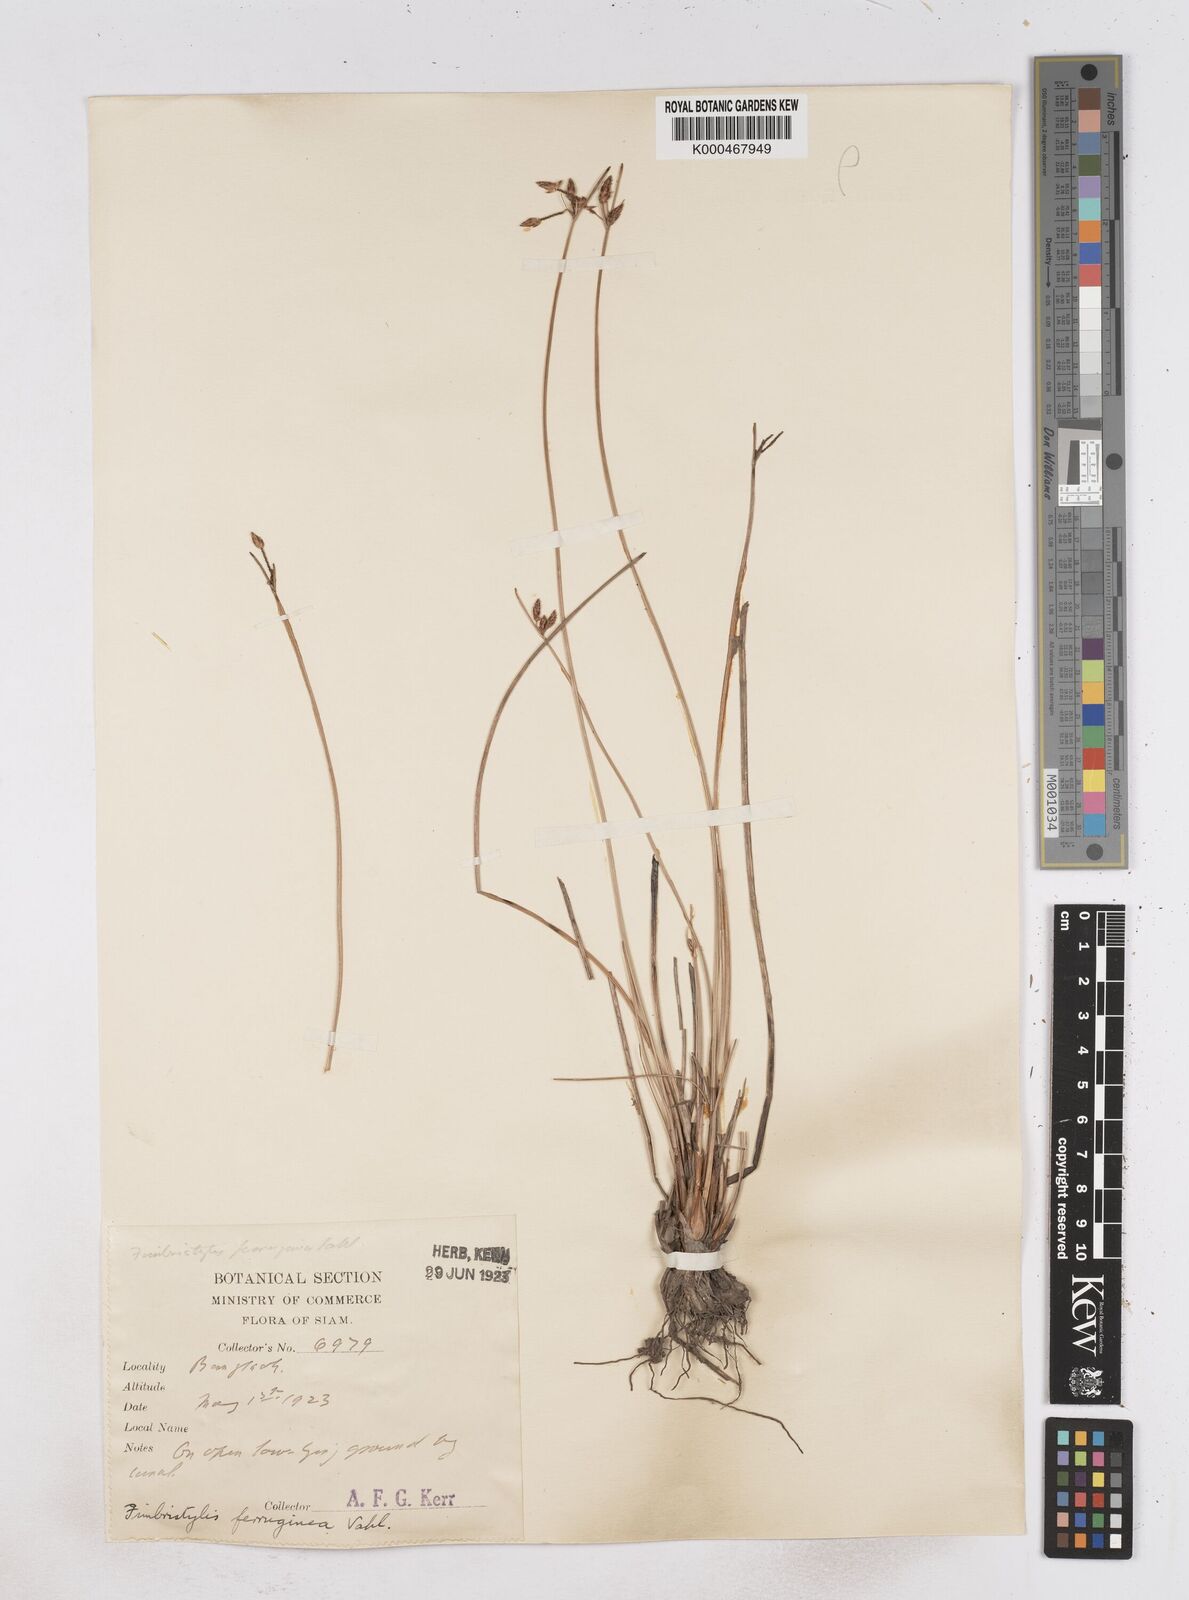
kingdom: Plantae
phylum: Tracheophyta
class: Liliopsida
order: Poales
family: Cyperaceae
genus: Fimbristylis
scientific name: Fimbristylis ferruginea
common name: West indian fimbry
